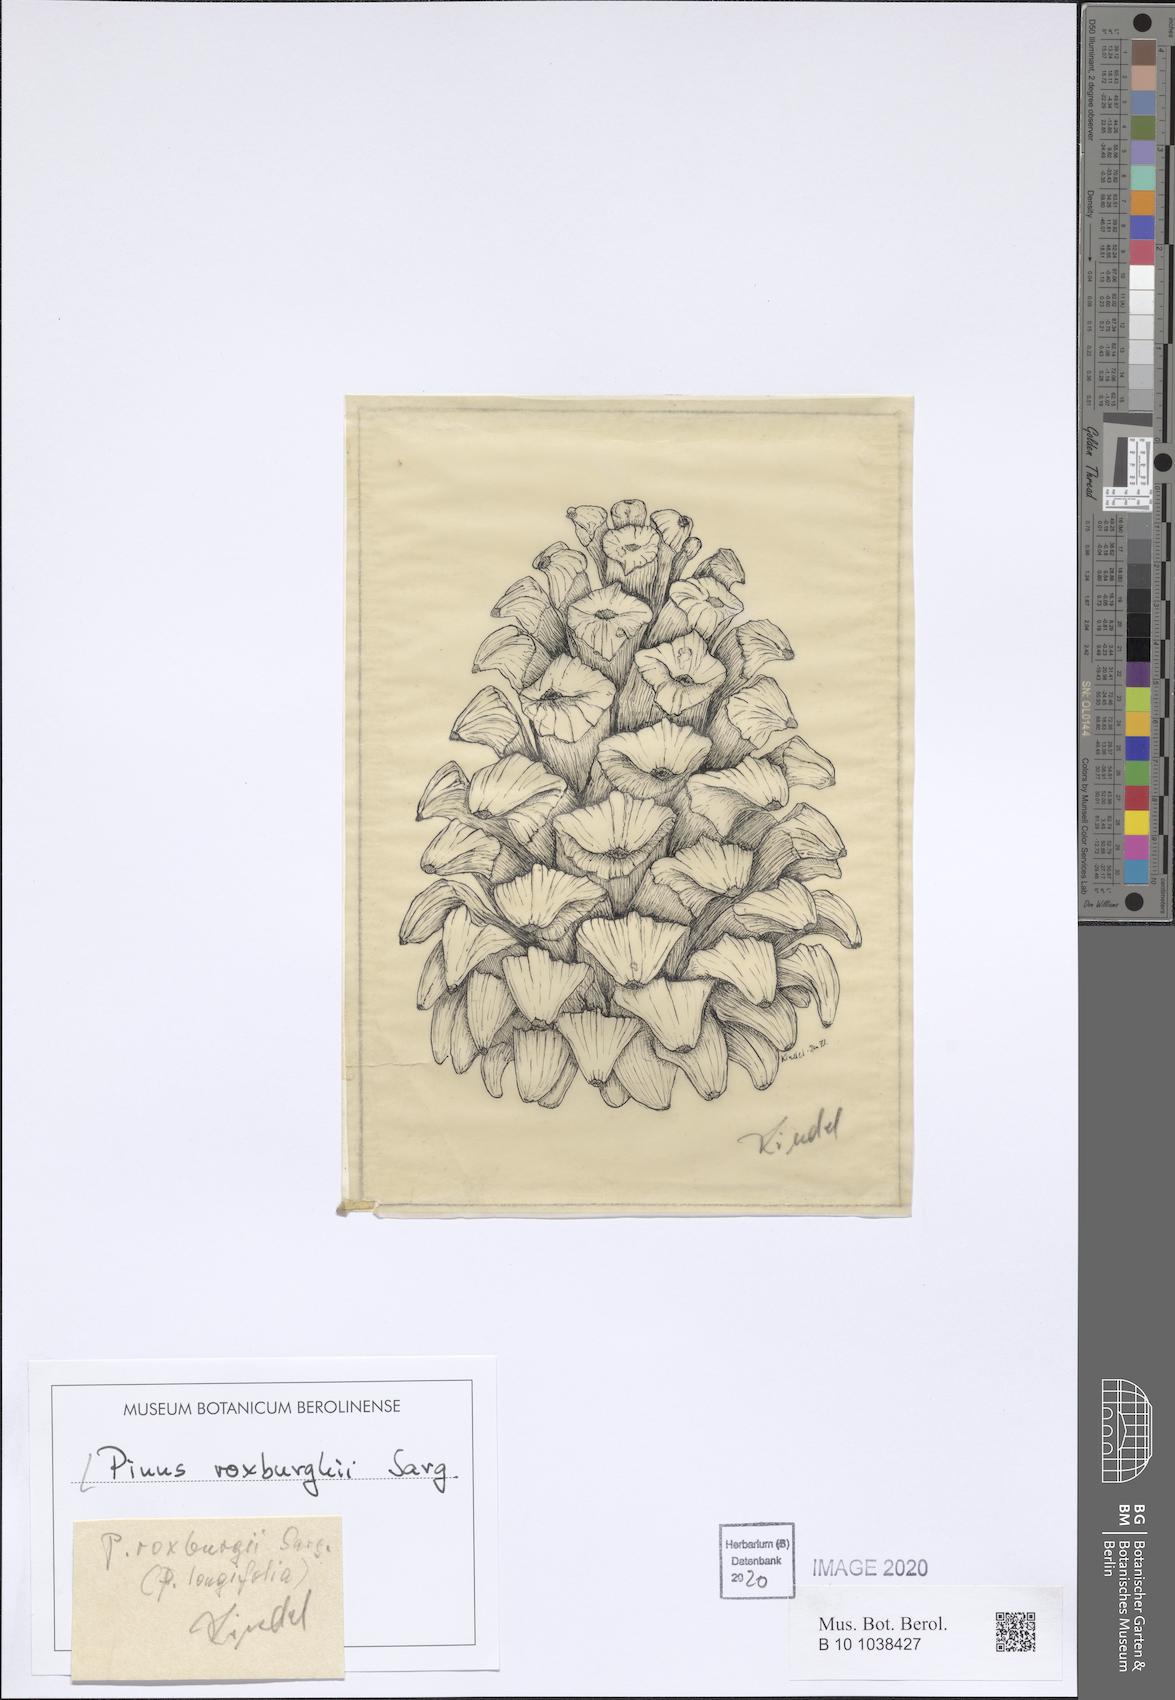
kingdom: Plantae
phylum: Tracheophyta
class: Pinopsida
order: Pinales
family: Pinaceae
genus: Pinus
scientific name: Pinus roxburghii
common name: Chir pine
